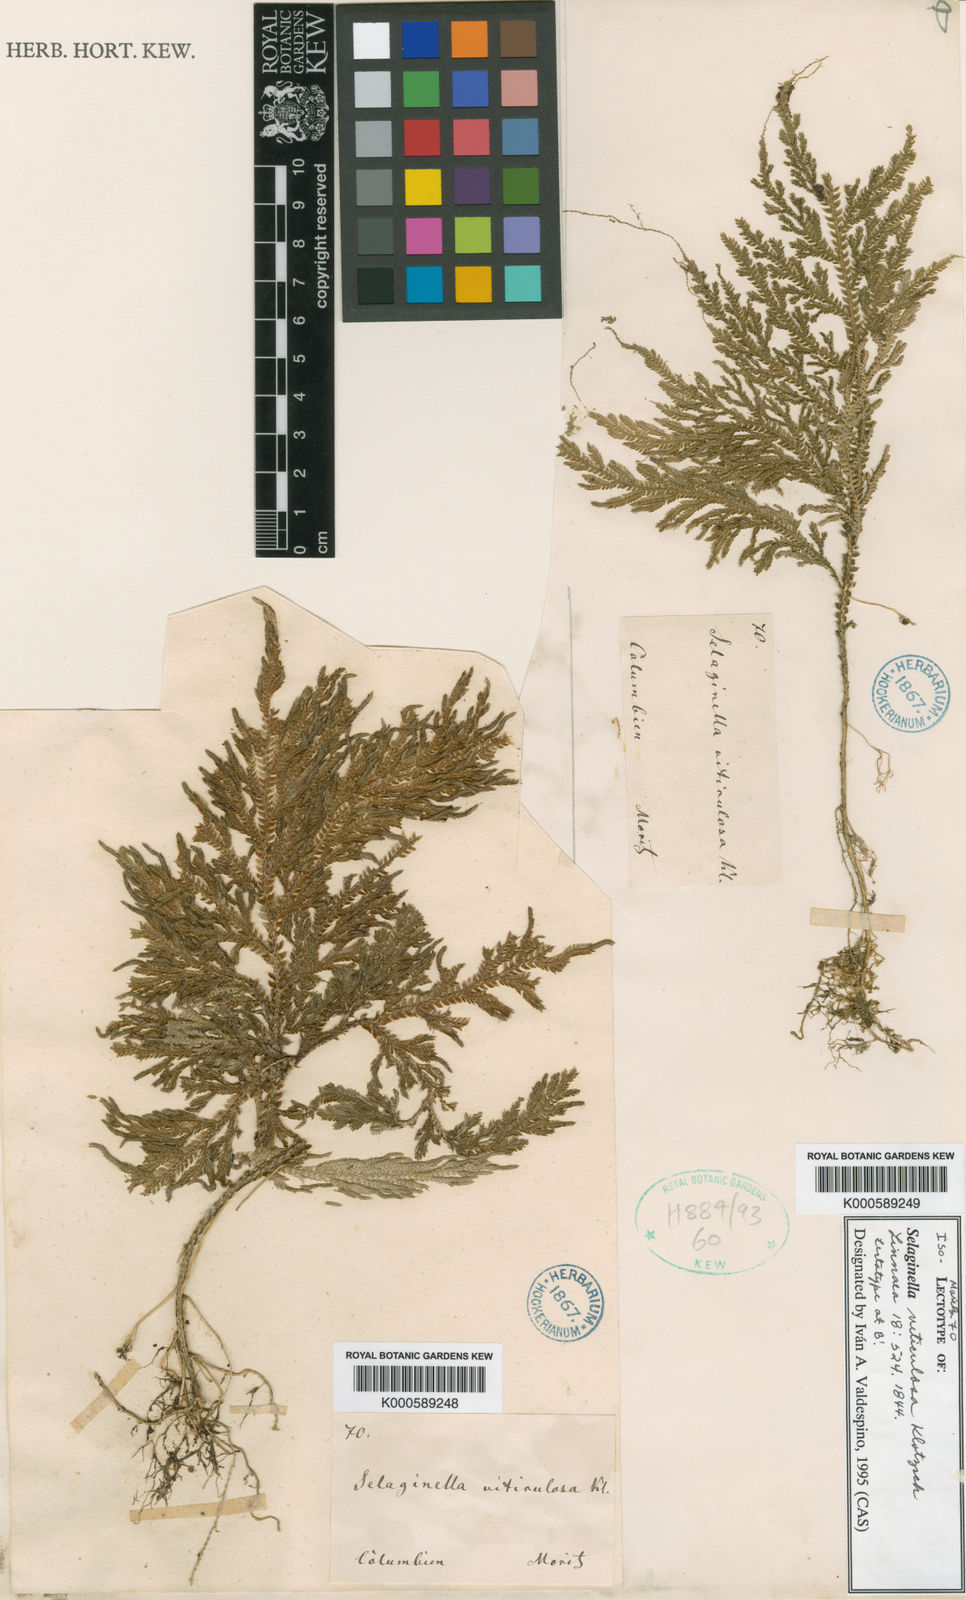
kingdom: Plantae
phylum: Tracheophyta
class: Lycopodiopsida
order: Selaginellales
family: Selaginellaceae
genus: Selaginella
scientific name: Selaginella viticulosa
